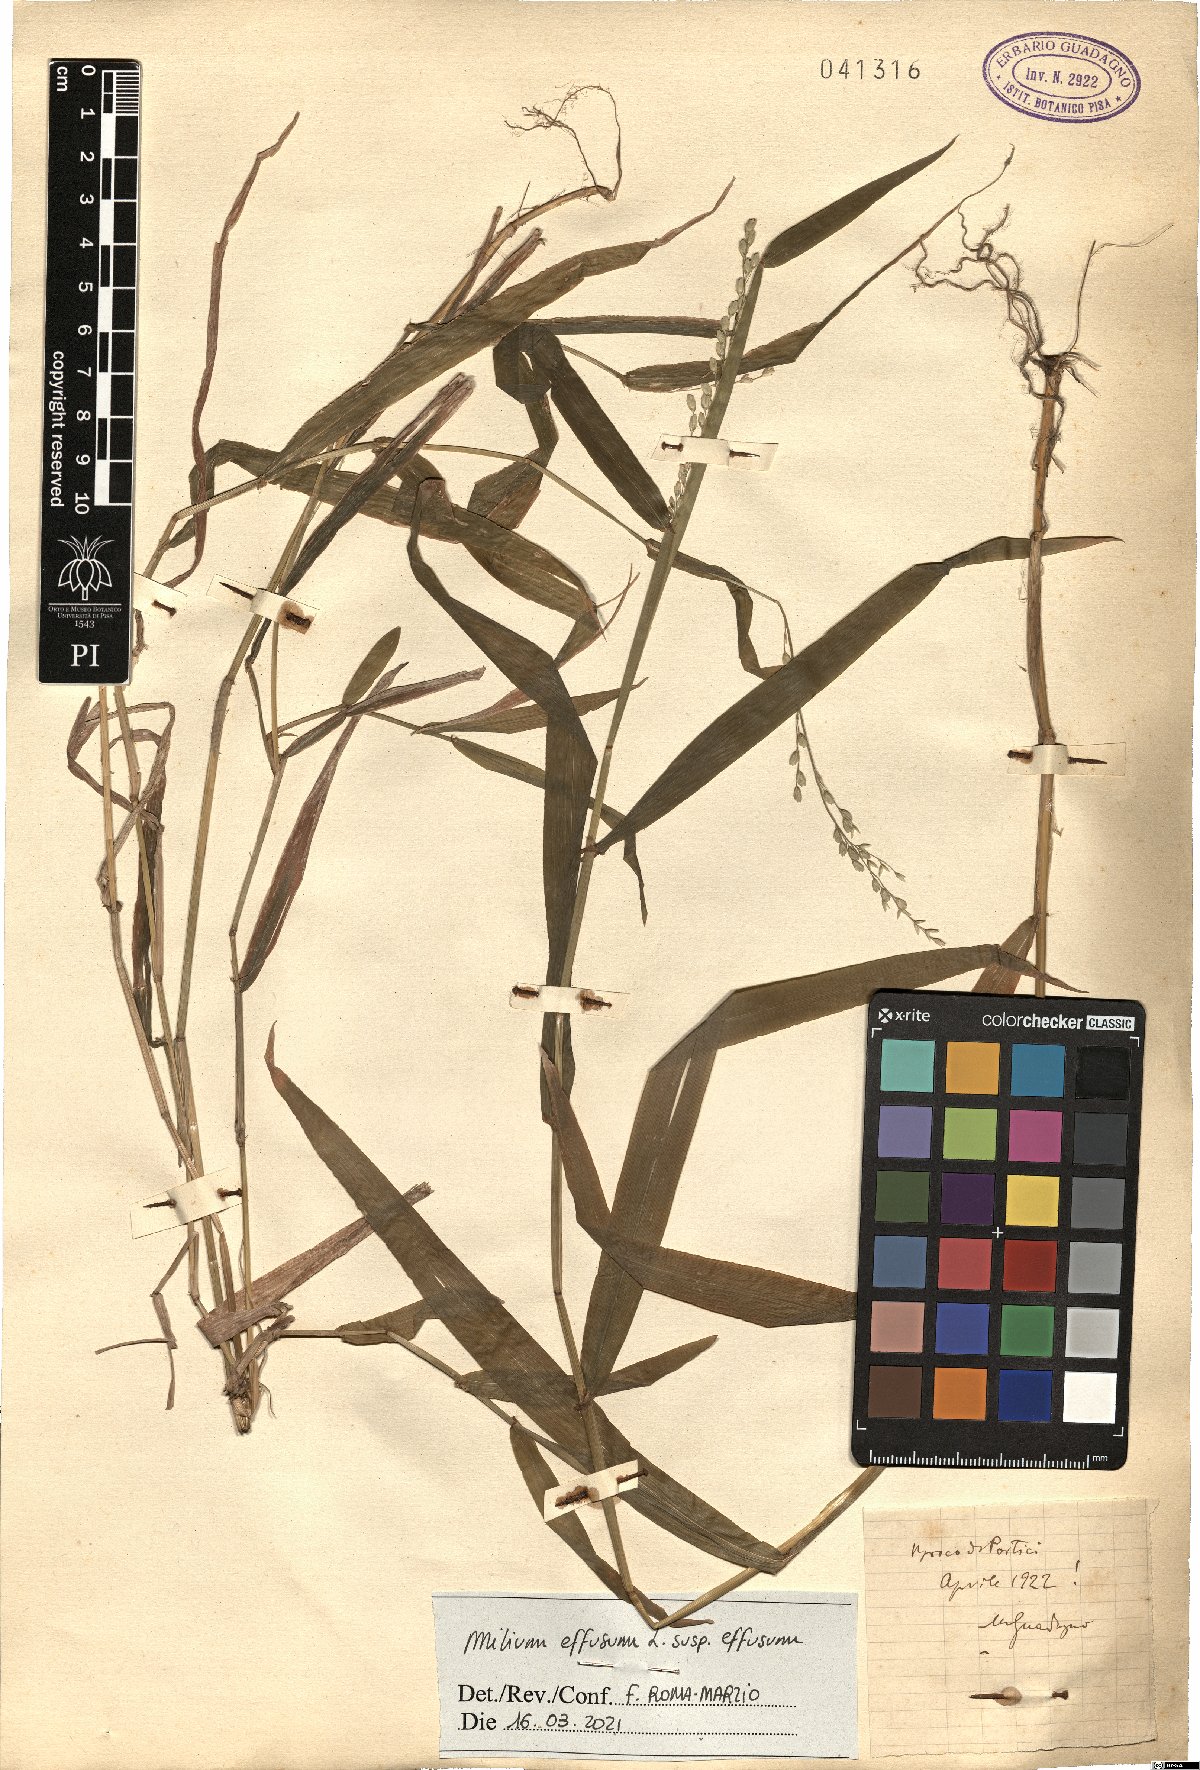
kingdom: Plantae
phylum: Tracheophyta
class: Liliopsida
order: Poales
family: Poaceae
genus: Milium
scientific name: Milium effusum
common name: Wood millet
